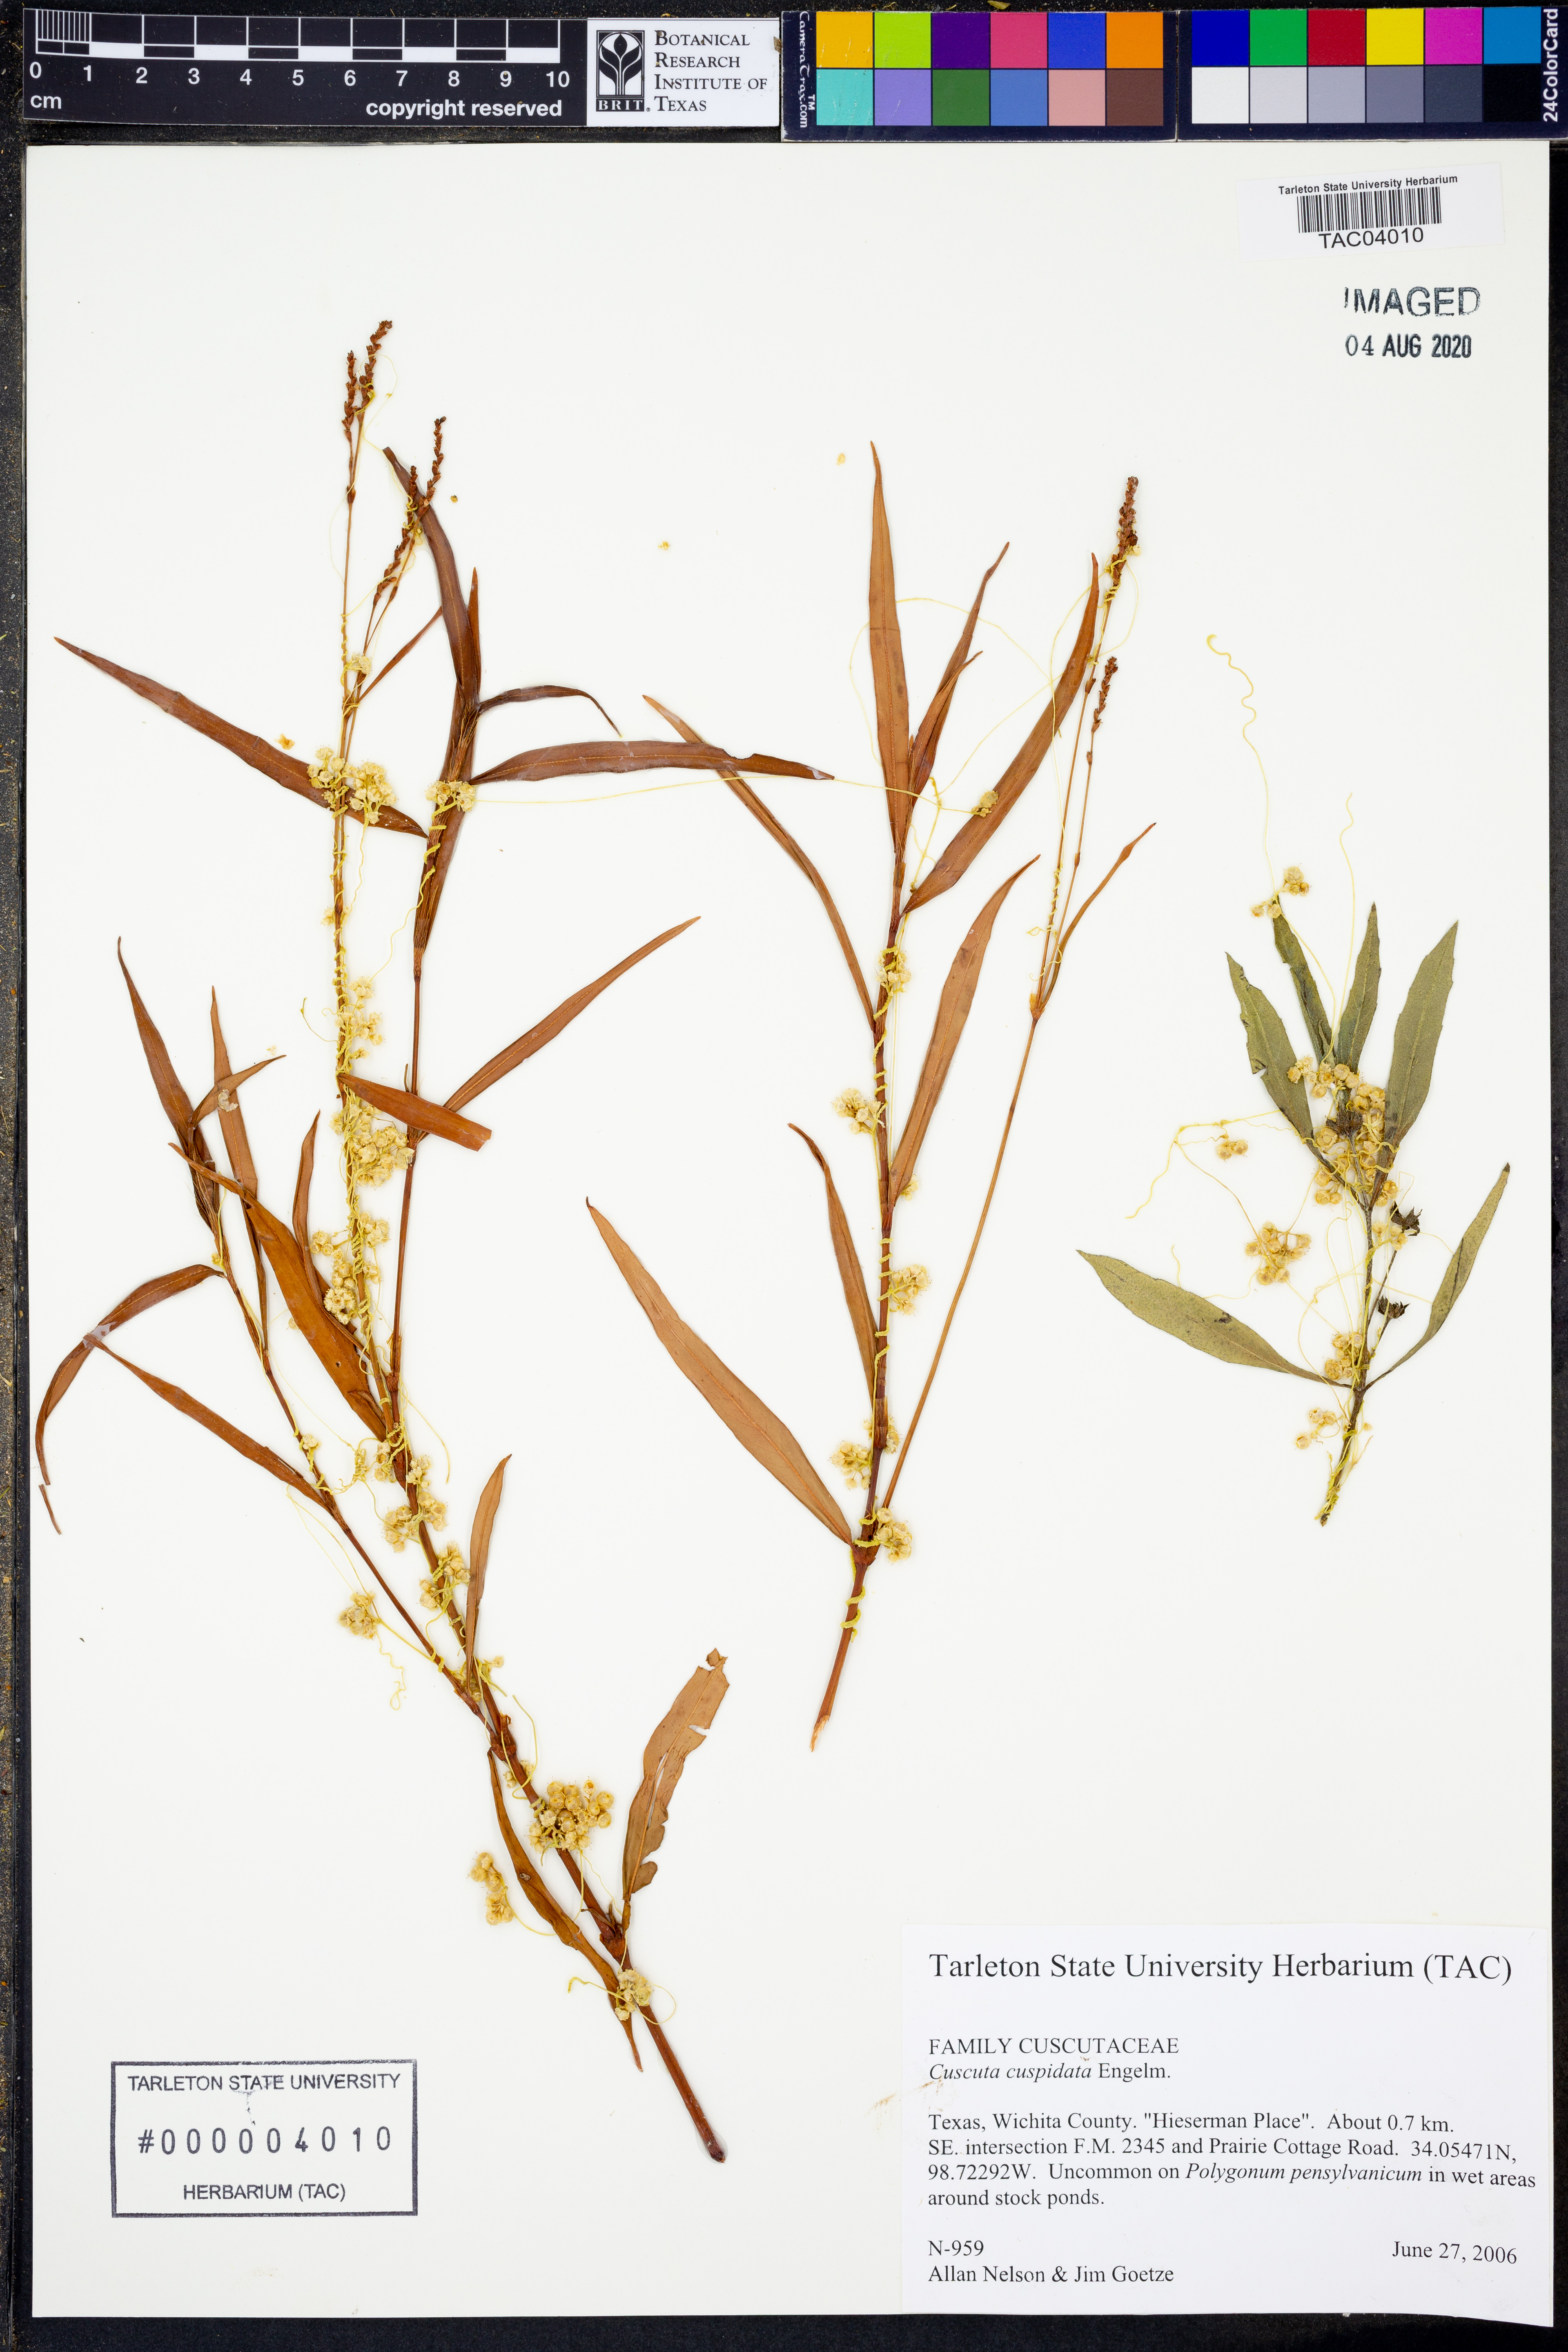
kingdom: Plantae
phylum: Tracheophyta
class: Magnoliopsida
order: Solanales
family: Convolvulaceae
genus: Cuscuta
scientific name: Cuscuta cuspidata
